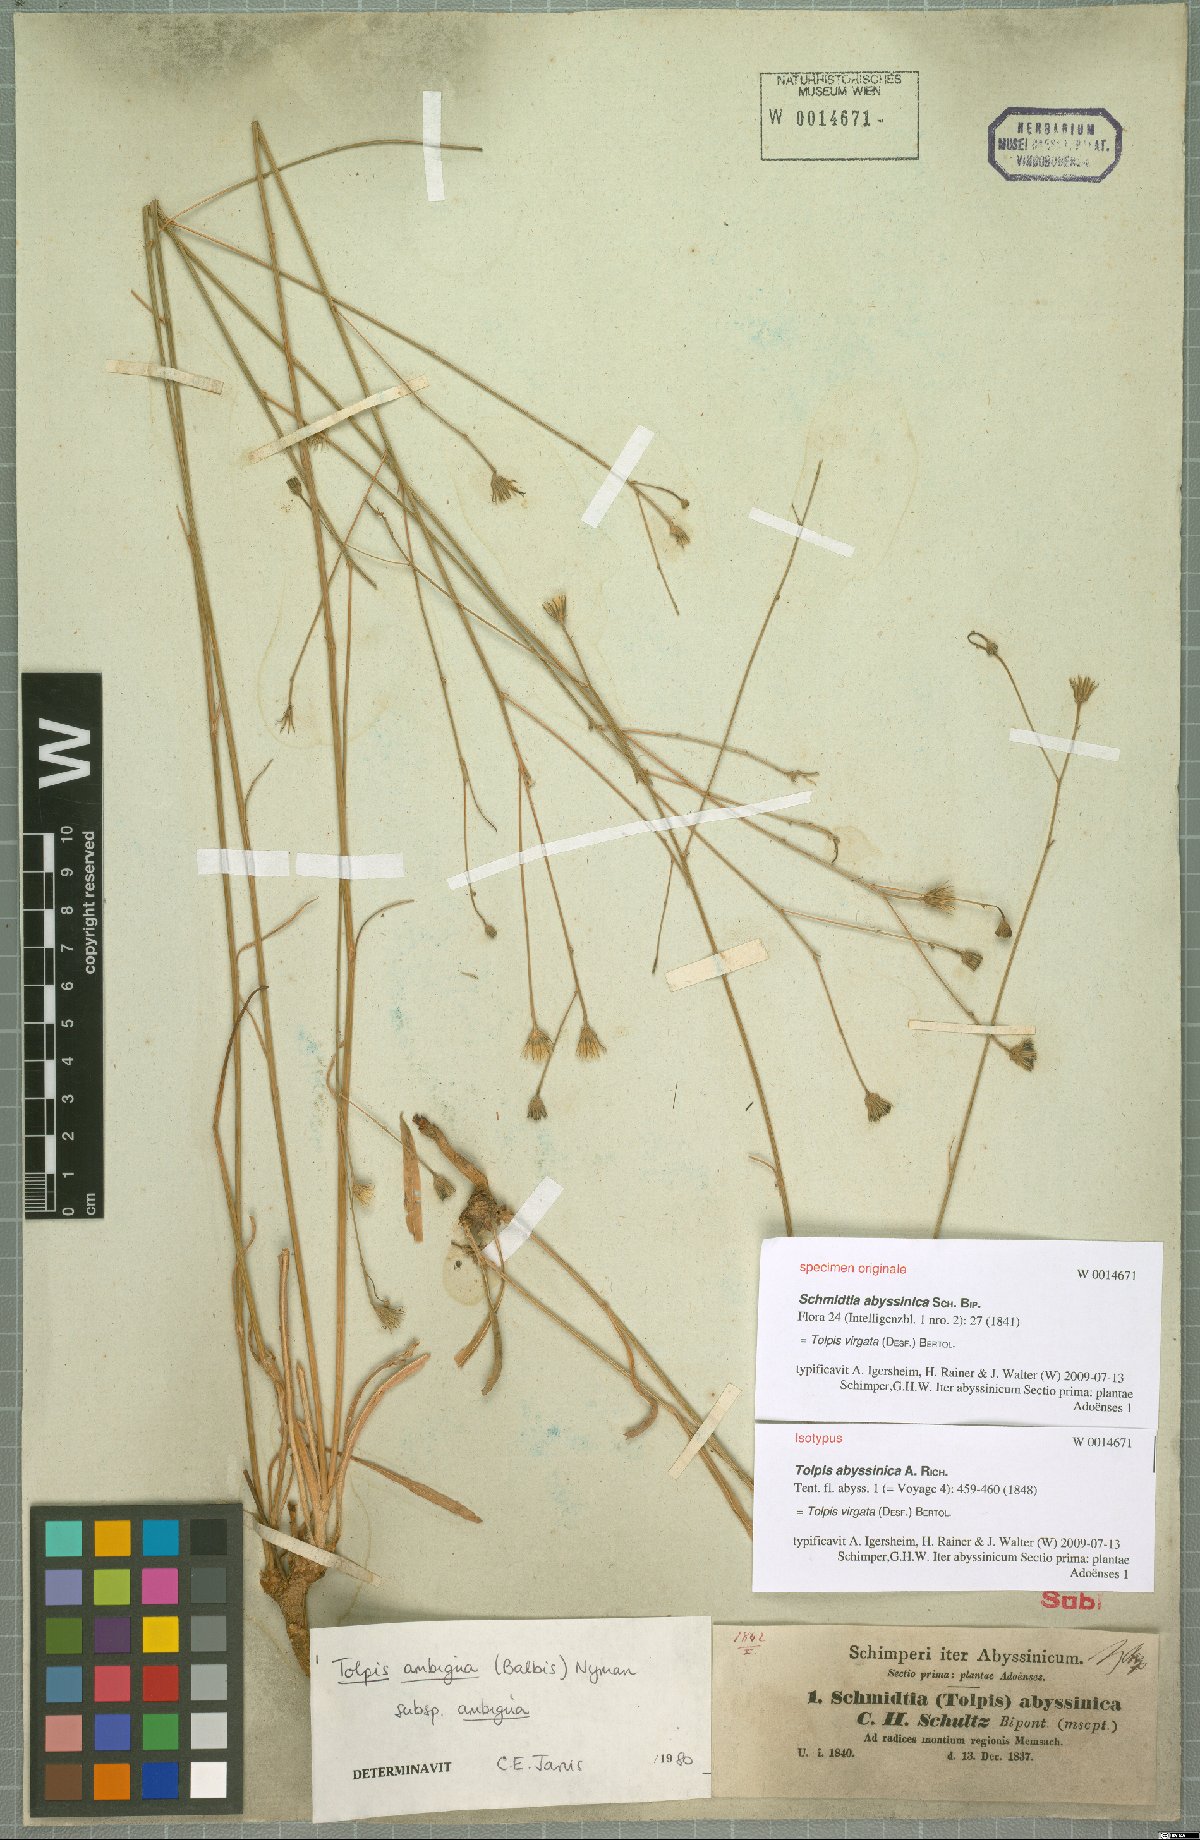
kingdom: Plantae
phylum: Tracheophyta
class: Magnoliopsida
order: Asterales
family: Asteraceae
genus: Tolpis
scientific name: Tolpis virgata
